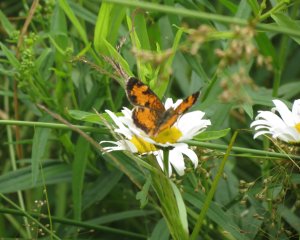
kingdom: Animalia
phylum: Arthropoda
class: Insecta
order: Lepidoptera
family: Nymphalidae
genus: Phyciodes
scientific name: Phyciodes tharos
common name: Northern Crescent
